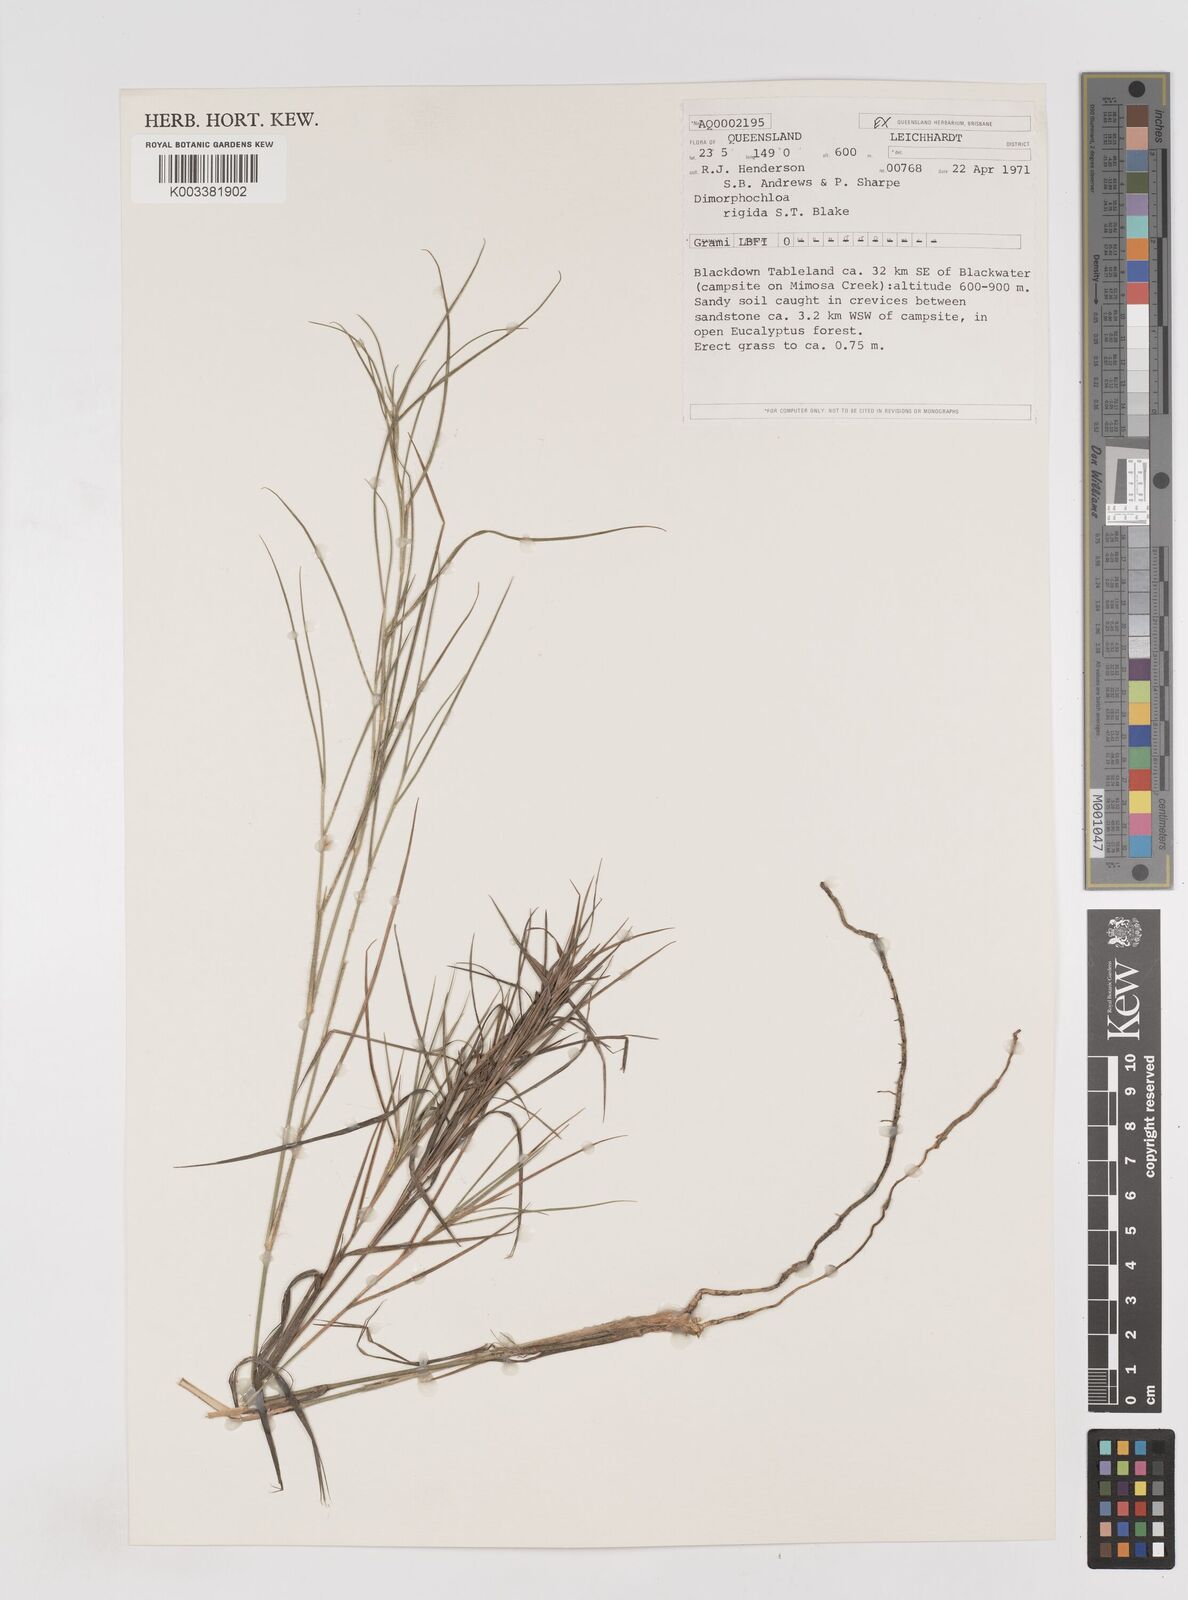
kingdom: Plantae
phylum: Tracheophyta
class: Liliopsida
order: Poales
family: Poaceae
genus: Dimorphochloa
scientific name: Dimorphochloa rigida
